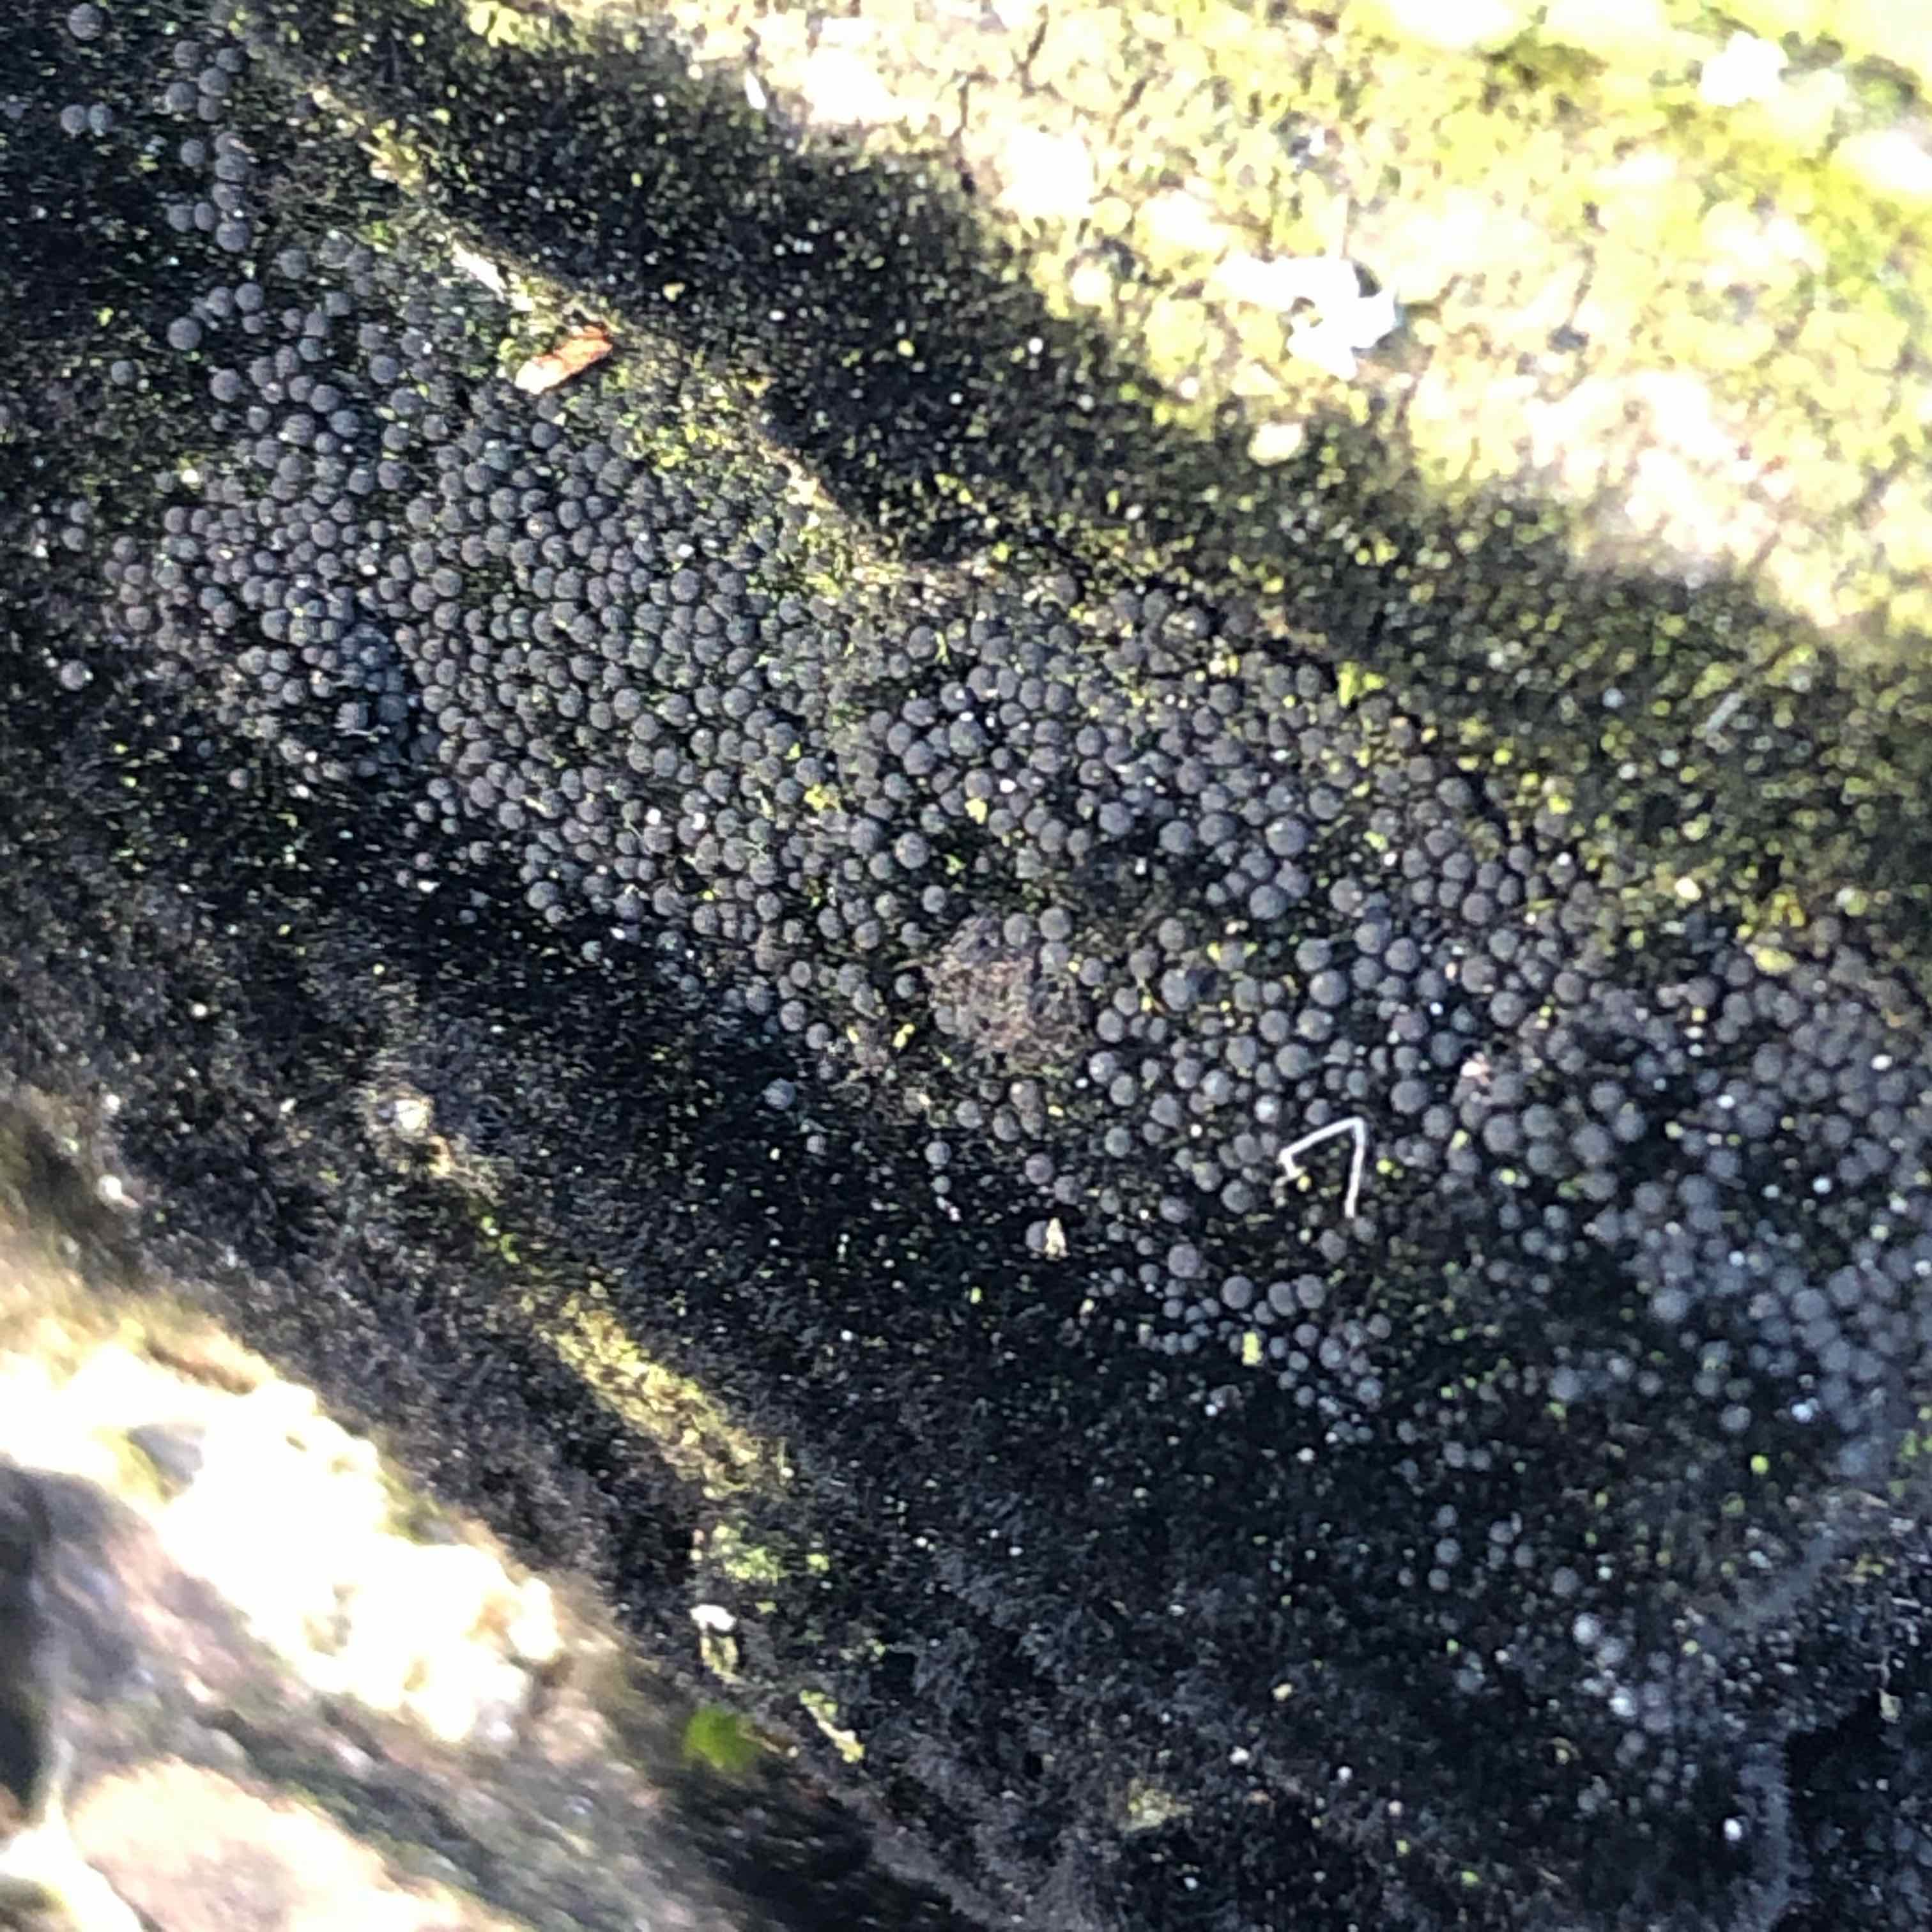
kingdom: Fungi
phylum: Ascomycota
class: Sordariomycetes
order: Coronophorales
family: Chaetosphaerellaceae
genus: Chaetosphaerella
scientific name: Chaetosphaerella phaeostroma
